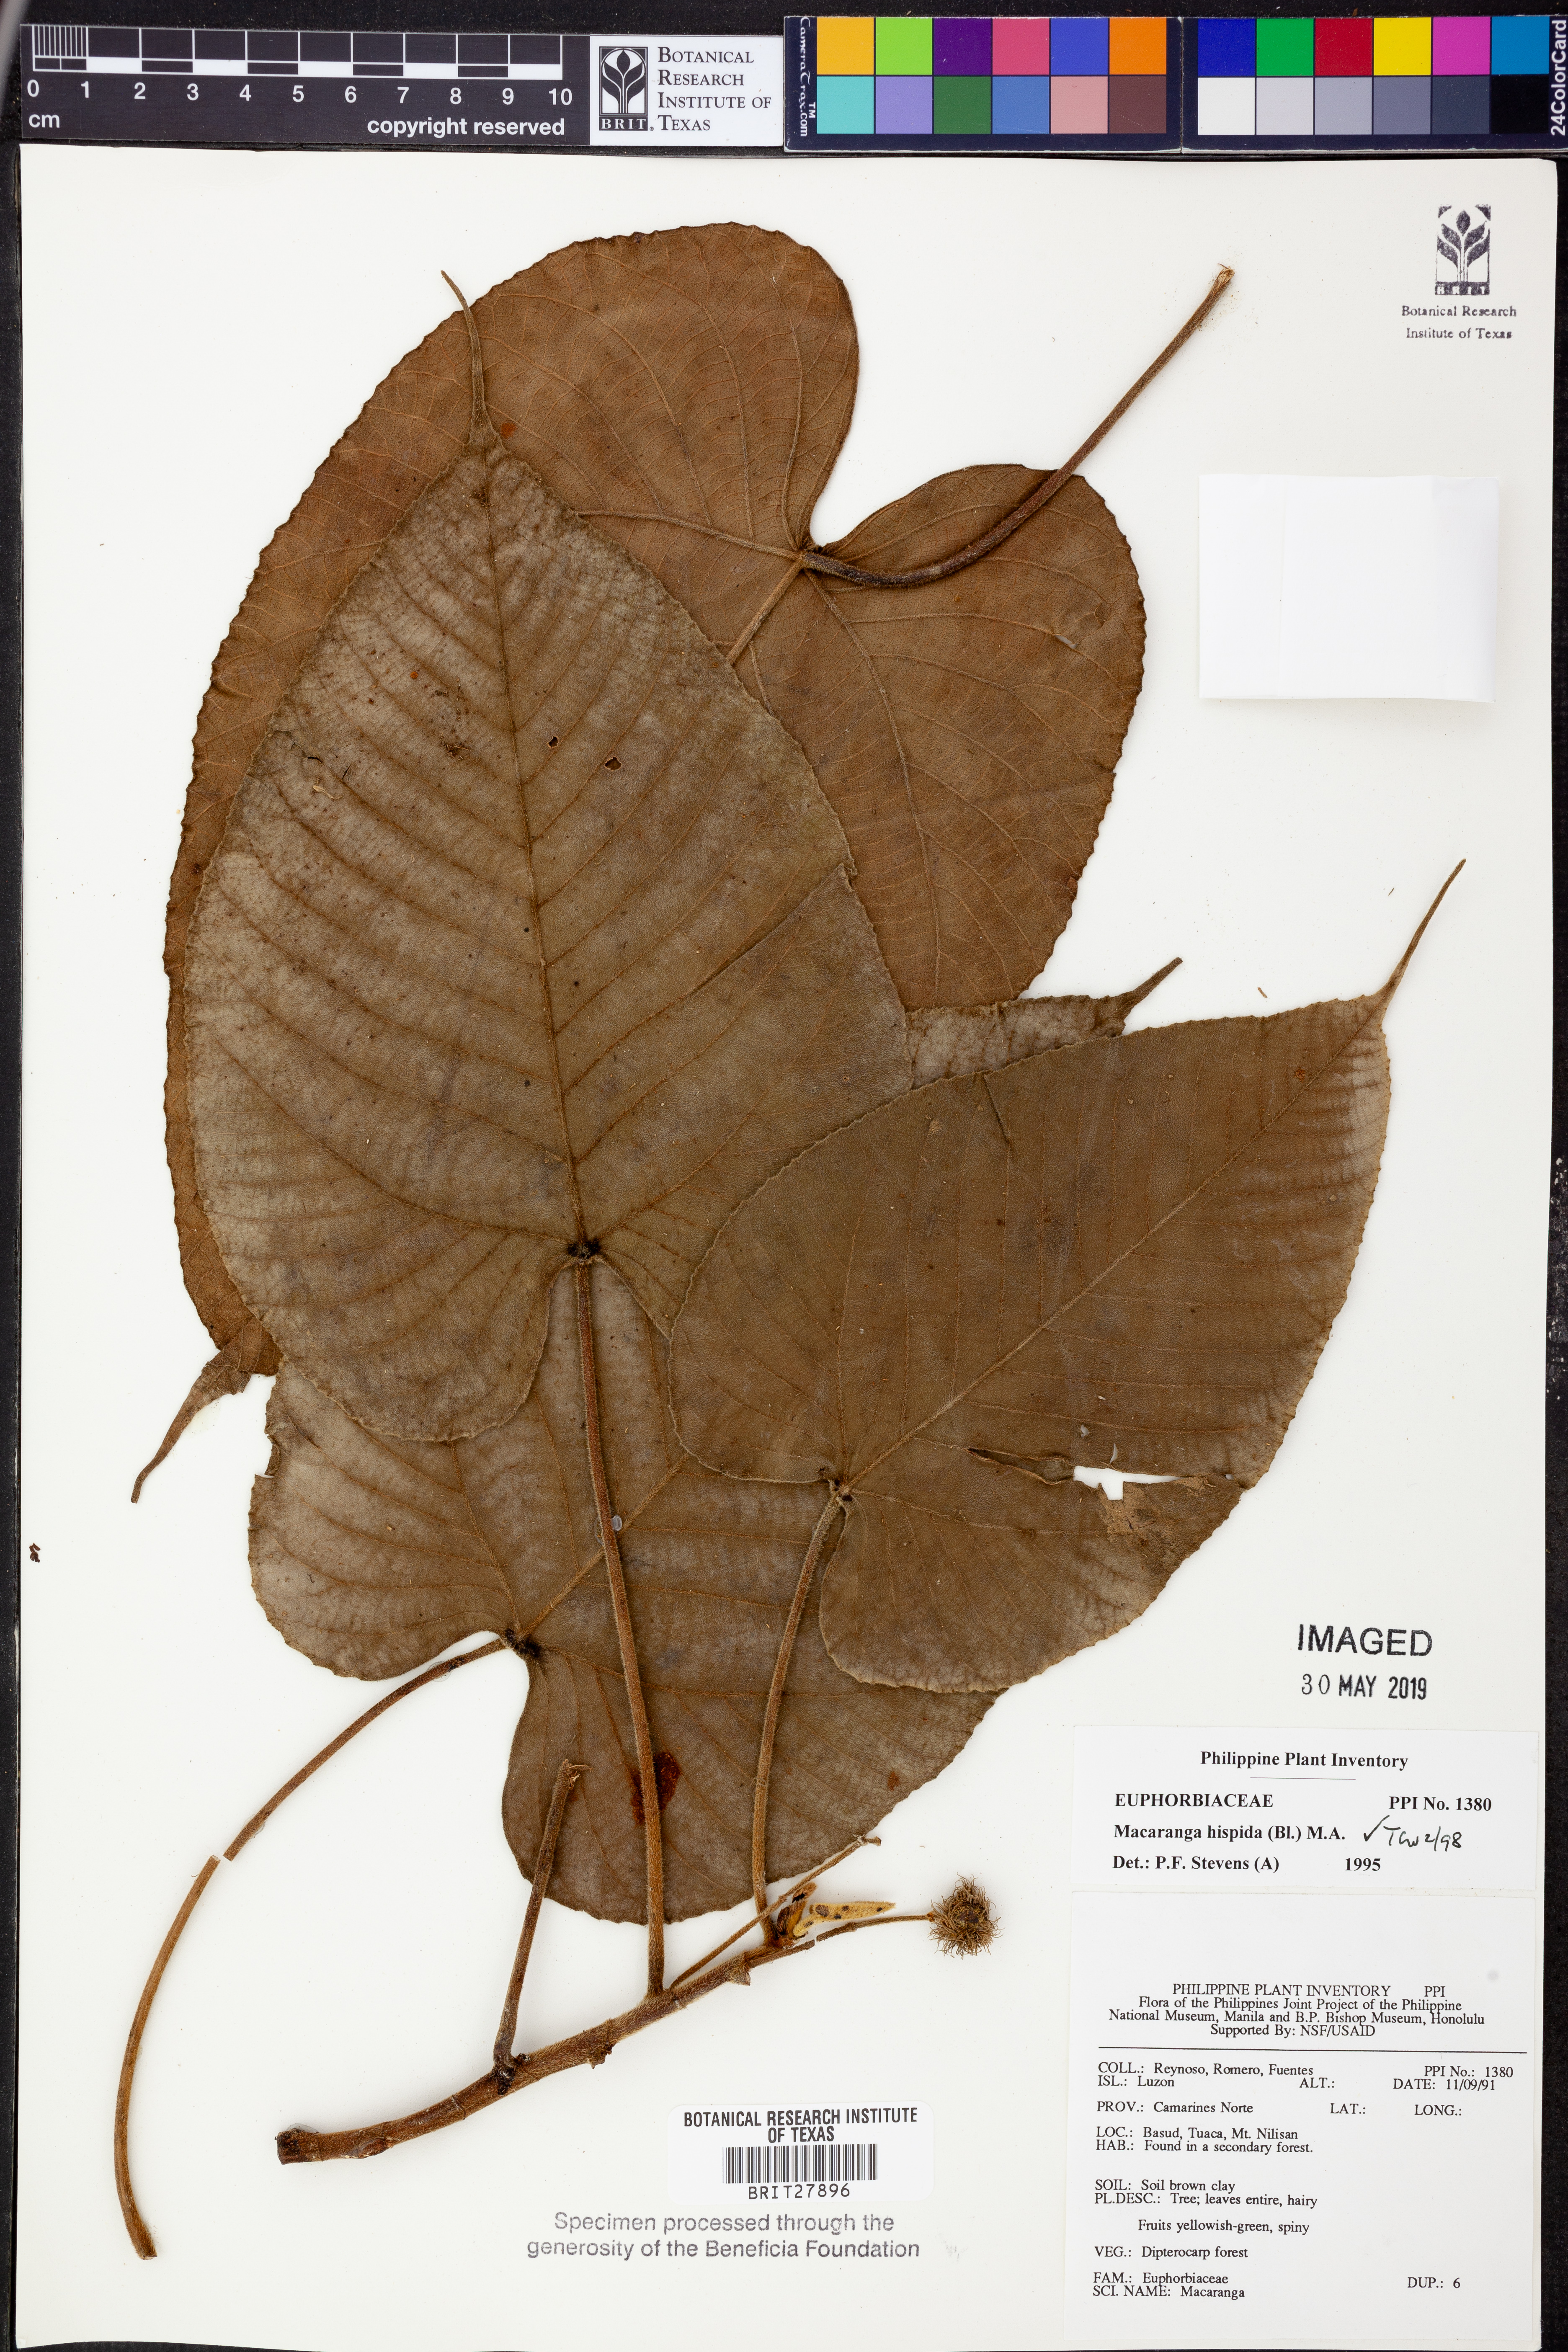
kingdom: Plantae
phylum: Tracheophyta
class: Magnoliopsida
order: Malpighiales
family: Euphorbiaceae
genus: Macaranga
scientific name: Macaranga hispida
